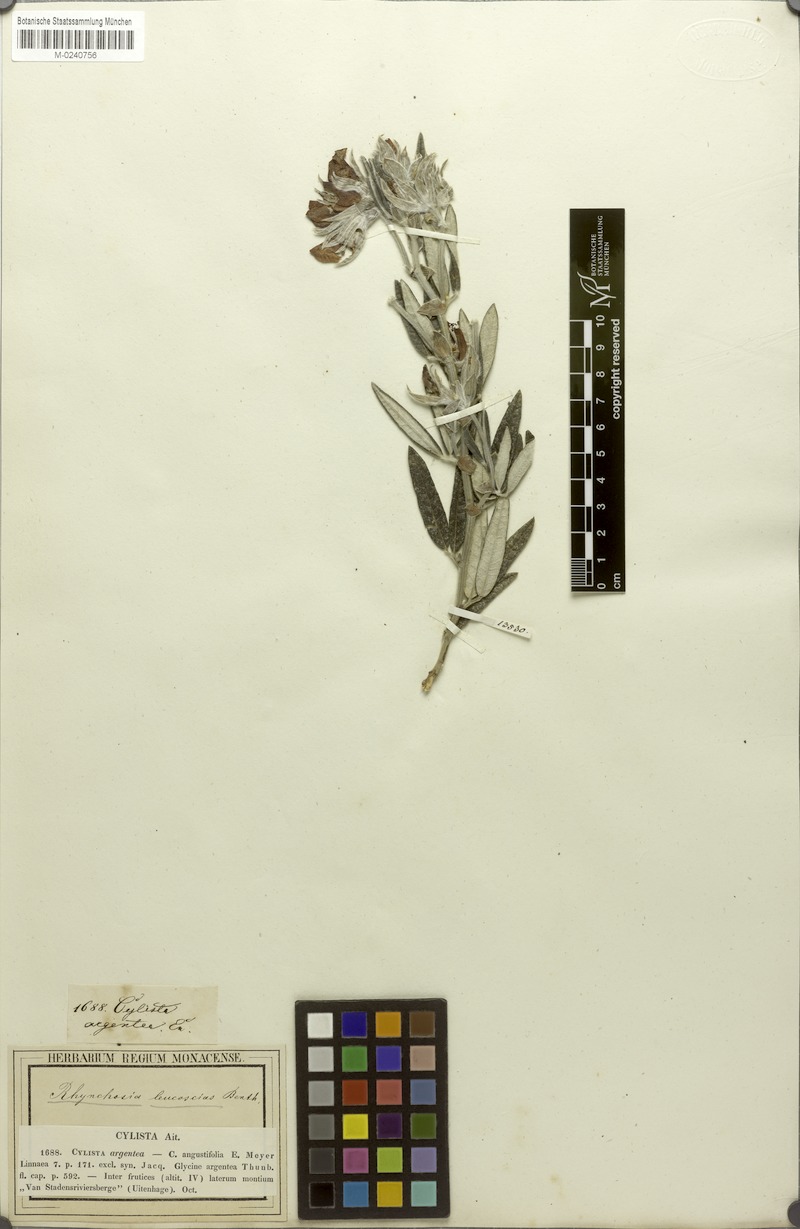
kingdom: Plantae
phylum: Tracheophyta
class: Magnoliopsida
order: Fabales
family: Fabaceae
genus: Rhynchosia
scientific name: Rhynchosia leucoscias
